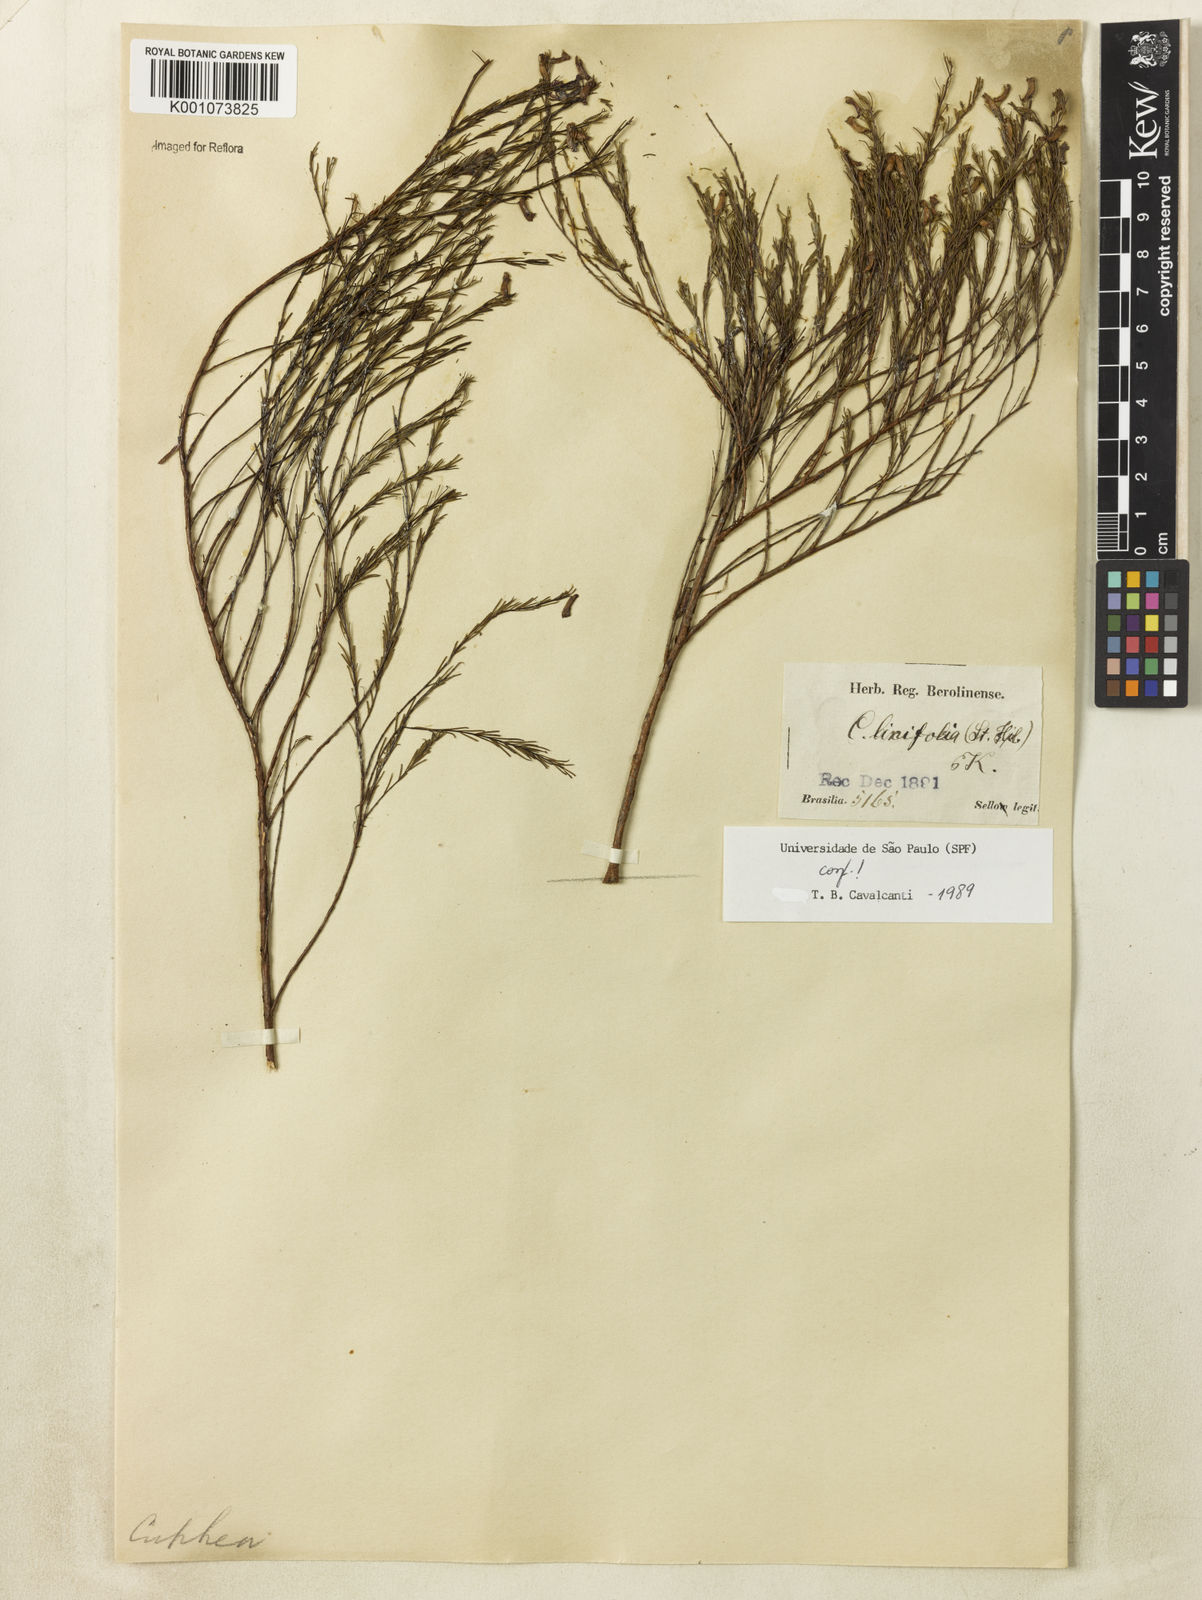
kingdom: Plantae
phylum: Tracheophyta
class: Magnoliopsida
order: Myrtales
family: Lythraceae
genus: Cuphea
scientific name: Cuphea linifolia
